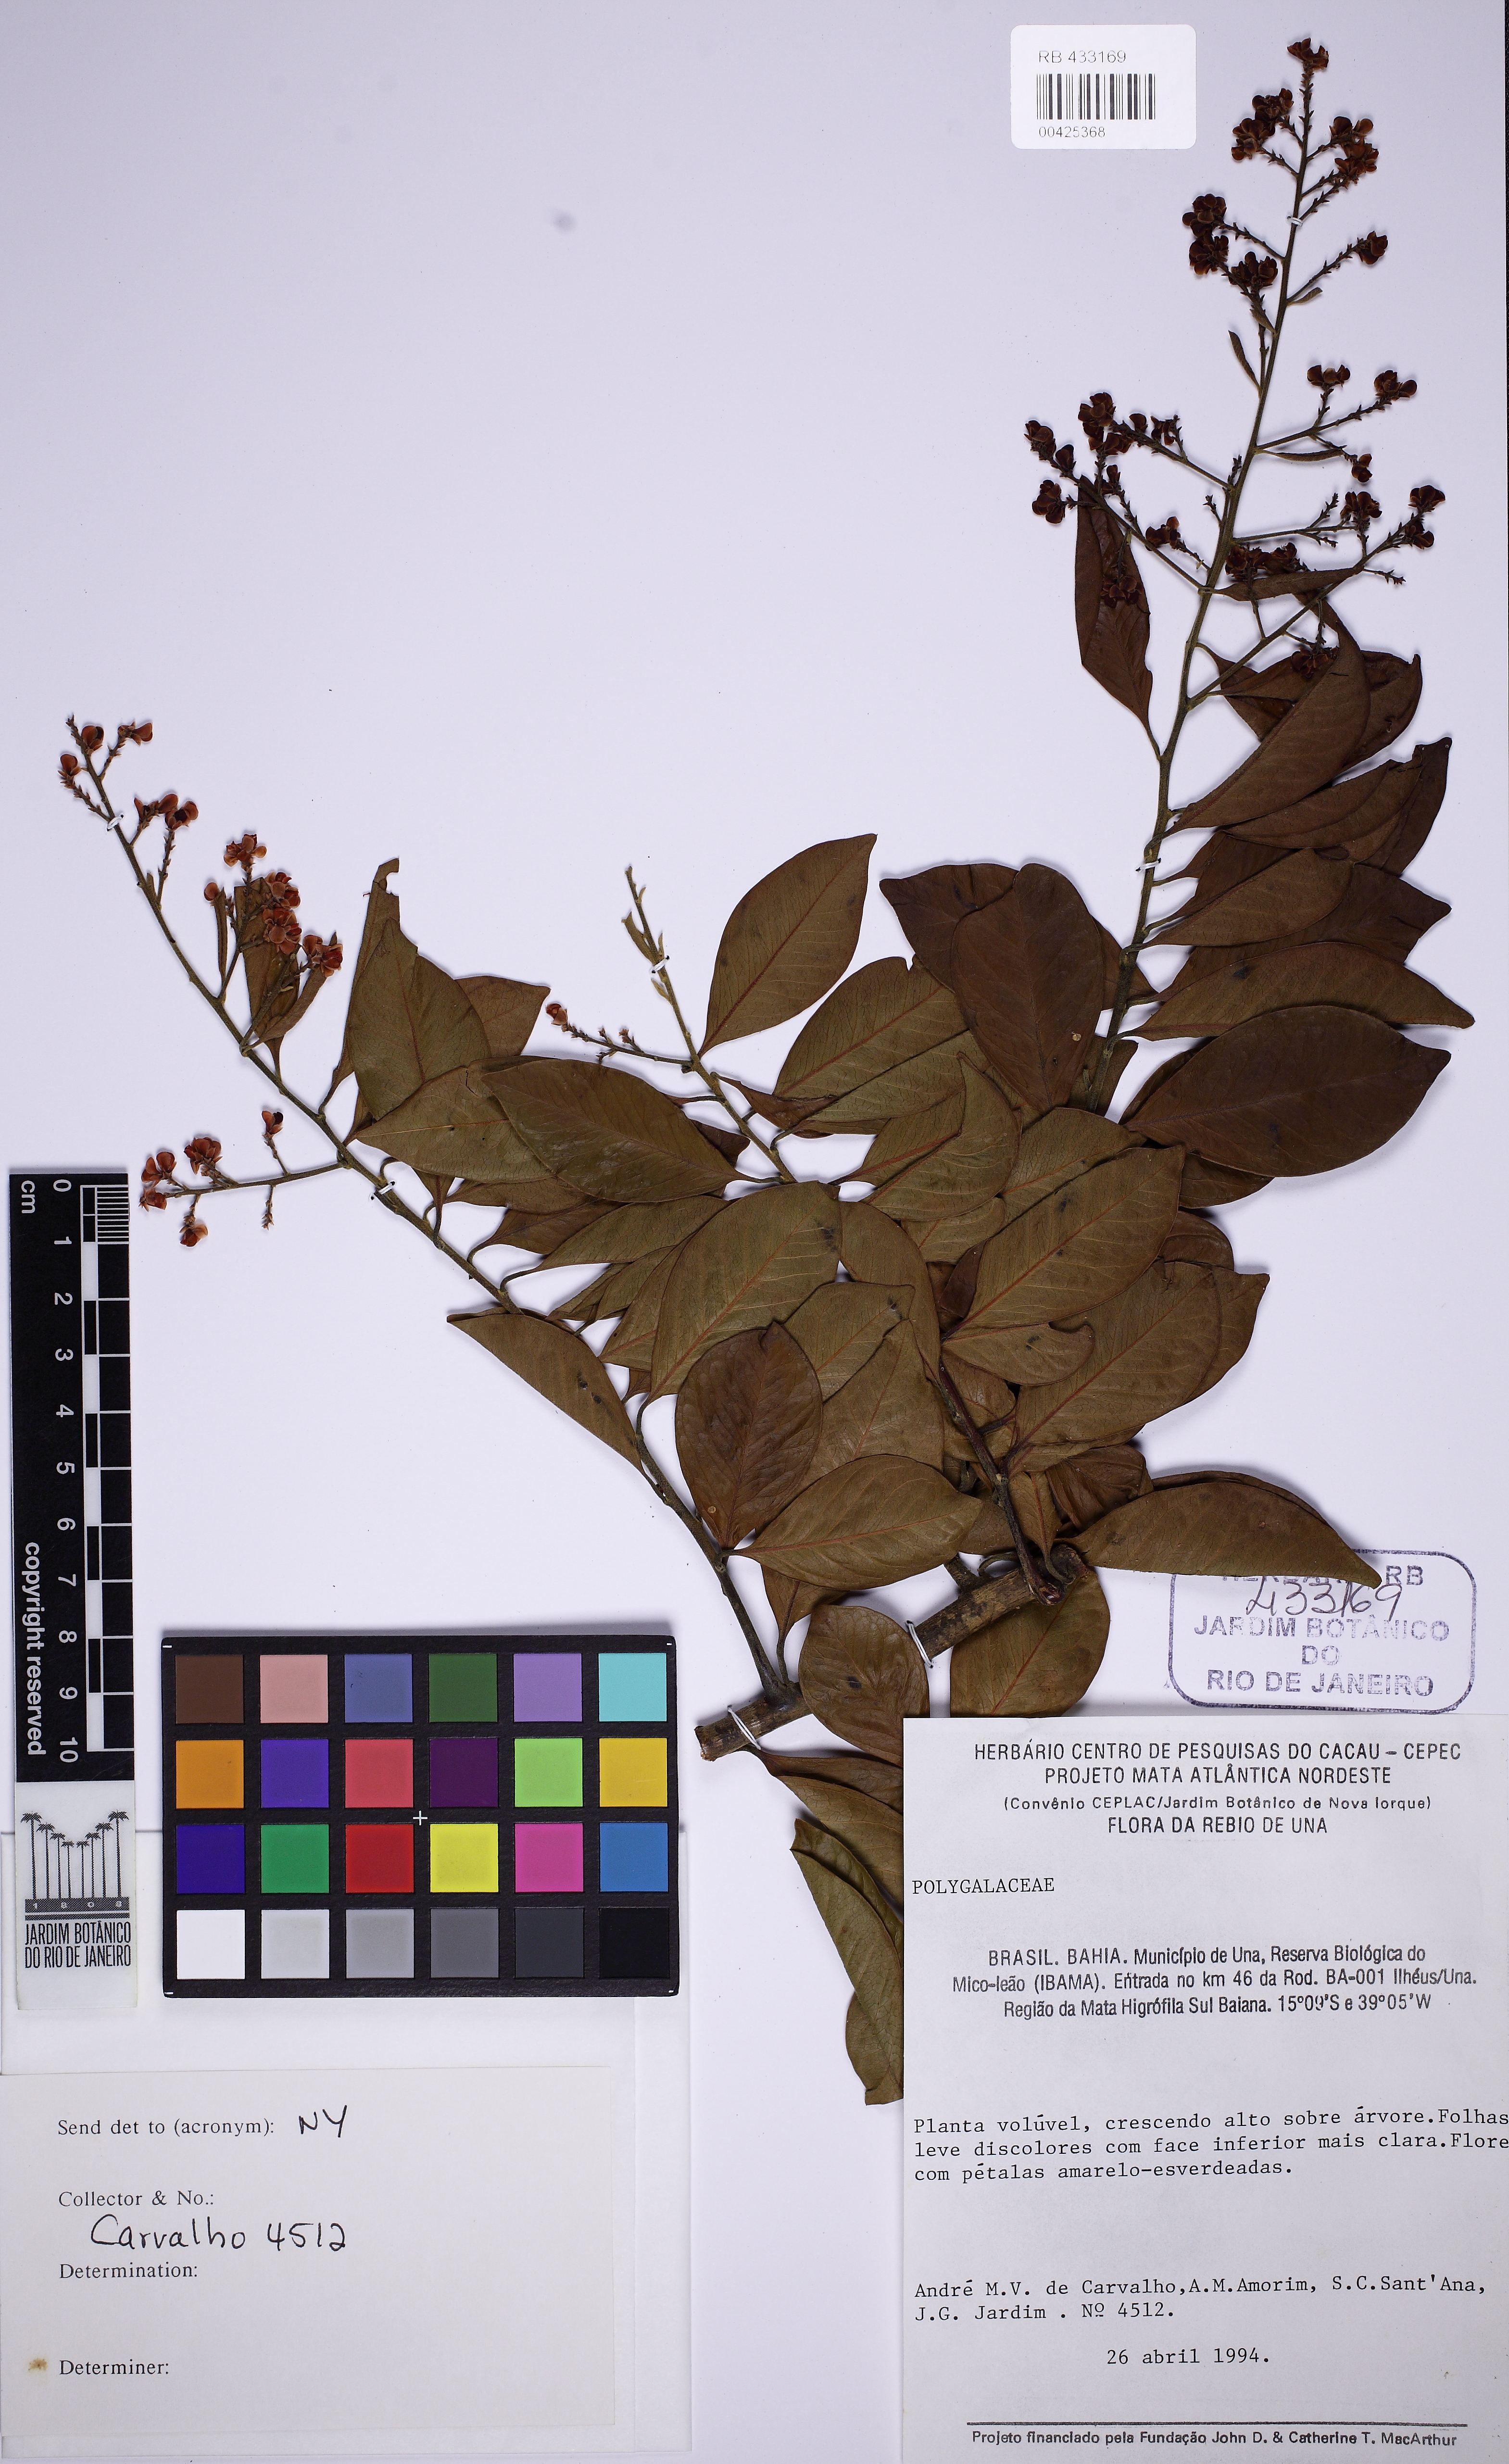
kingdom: Plantae
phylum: Tracheophyta
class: Magnoliopsida
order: Fabales
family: Polygalaceae
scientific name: Polygalaceae
